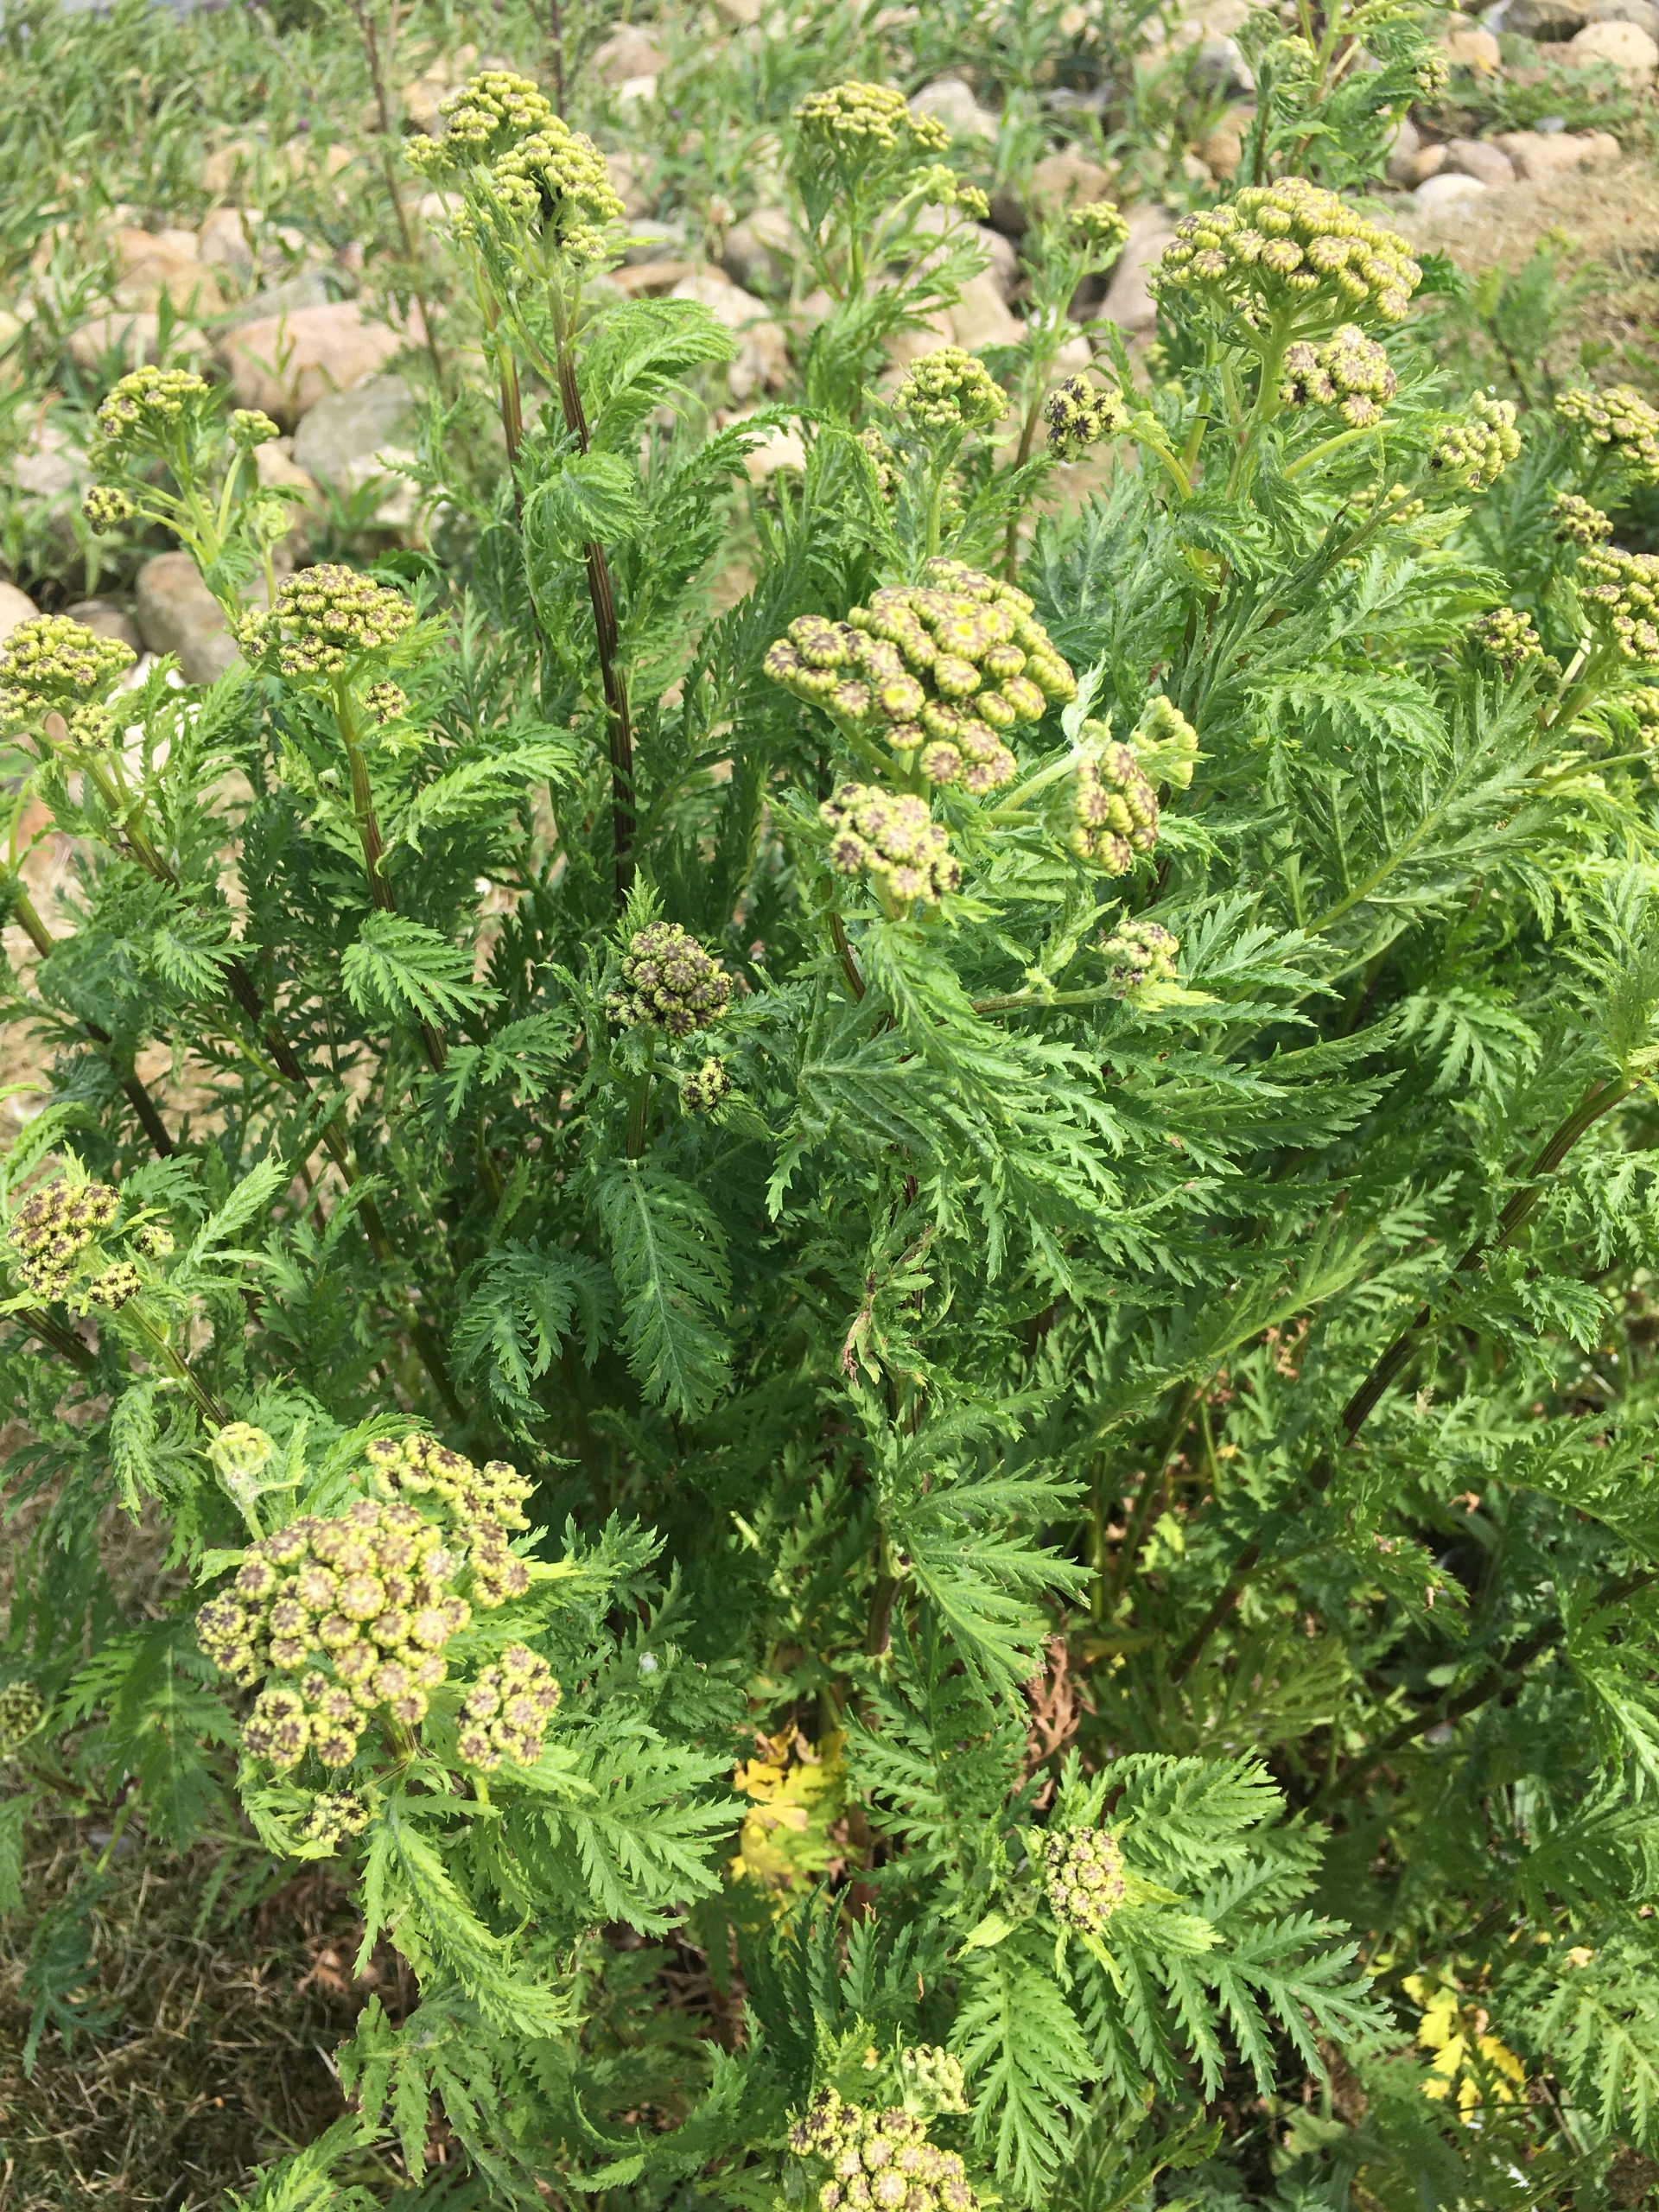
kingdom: Plantae
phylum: Tracheophyta
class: Magnoliopsida
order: Asterales
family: Asteraceae
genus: Tanacetum
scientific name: Tanacetum vulgare
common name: Rejnfan
